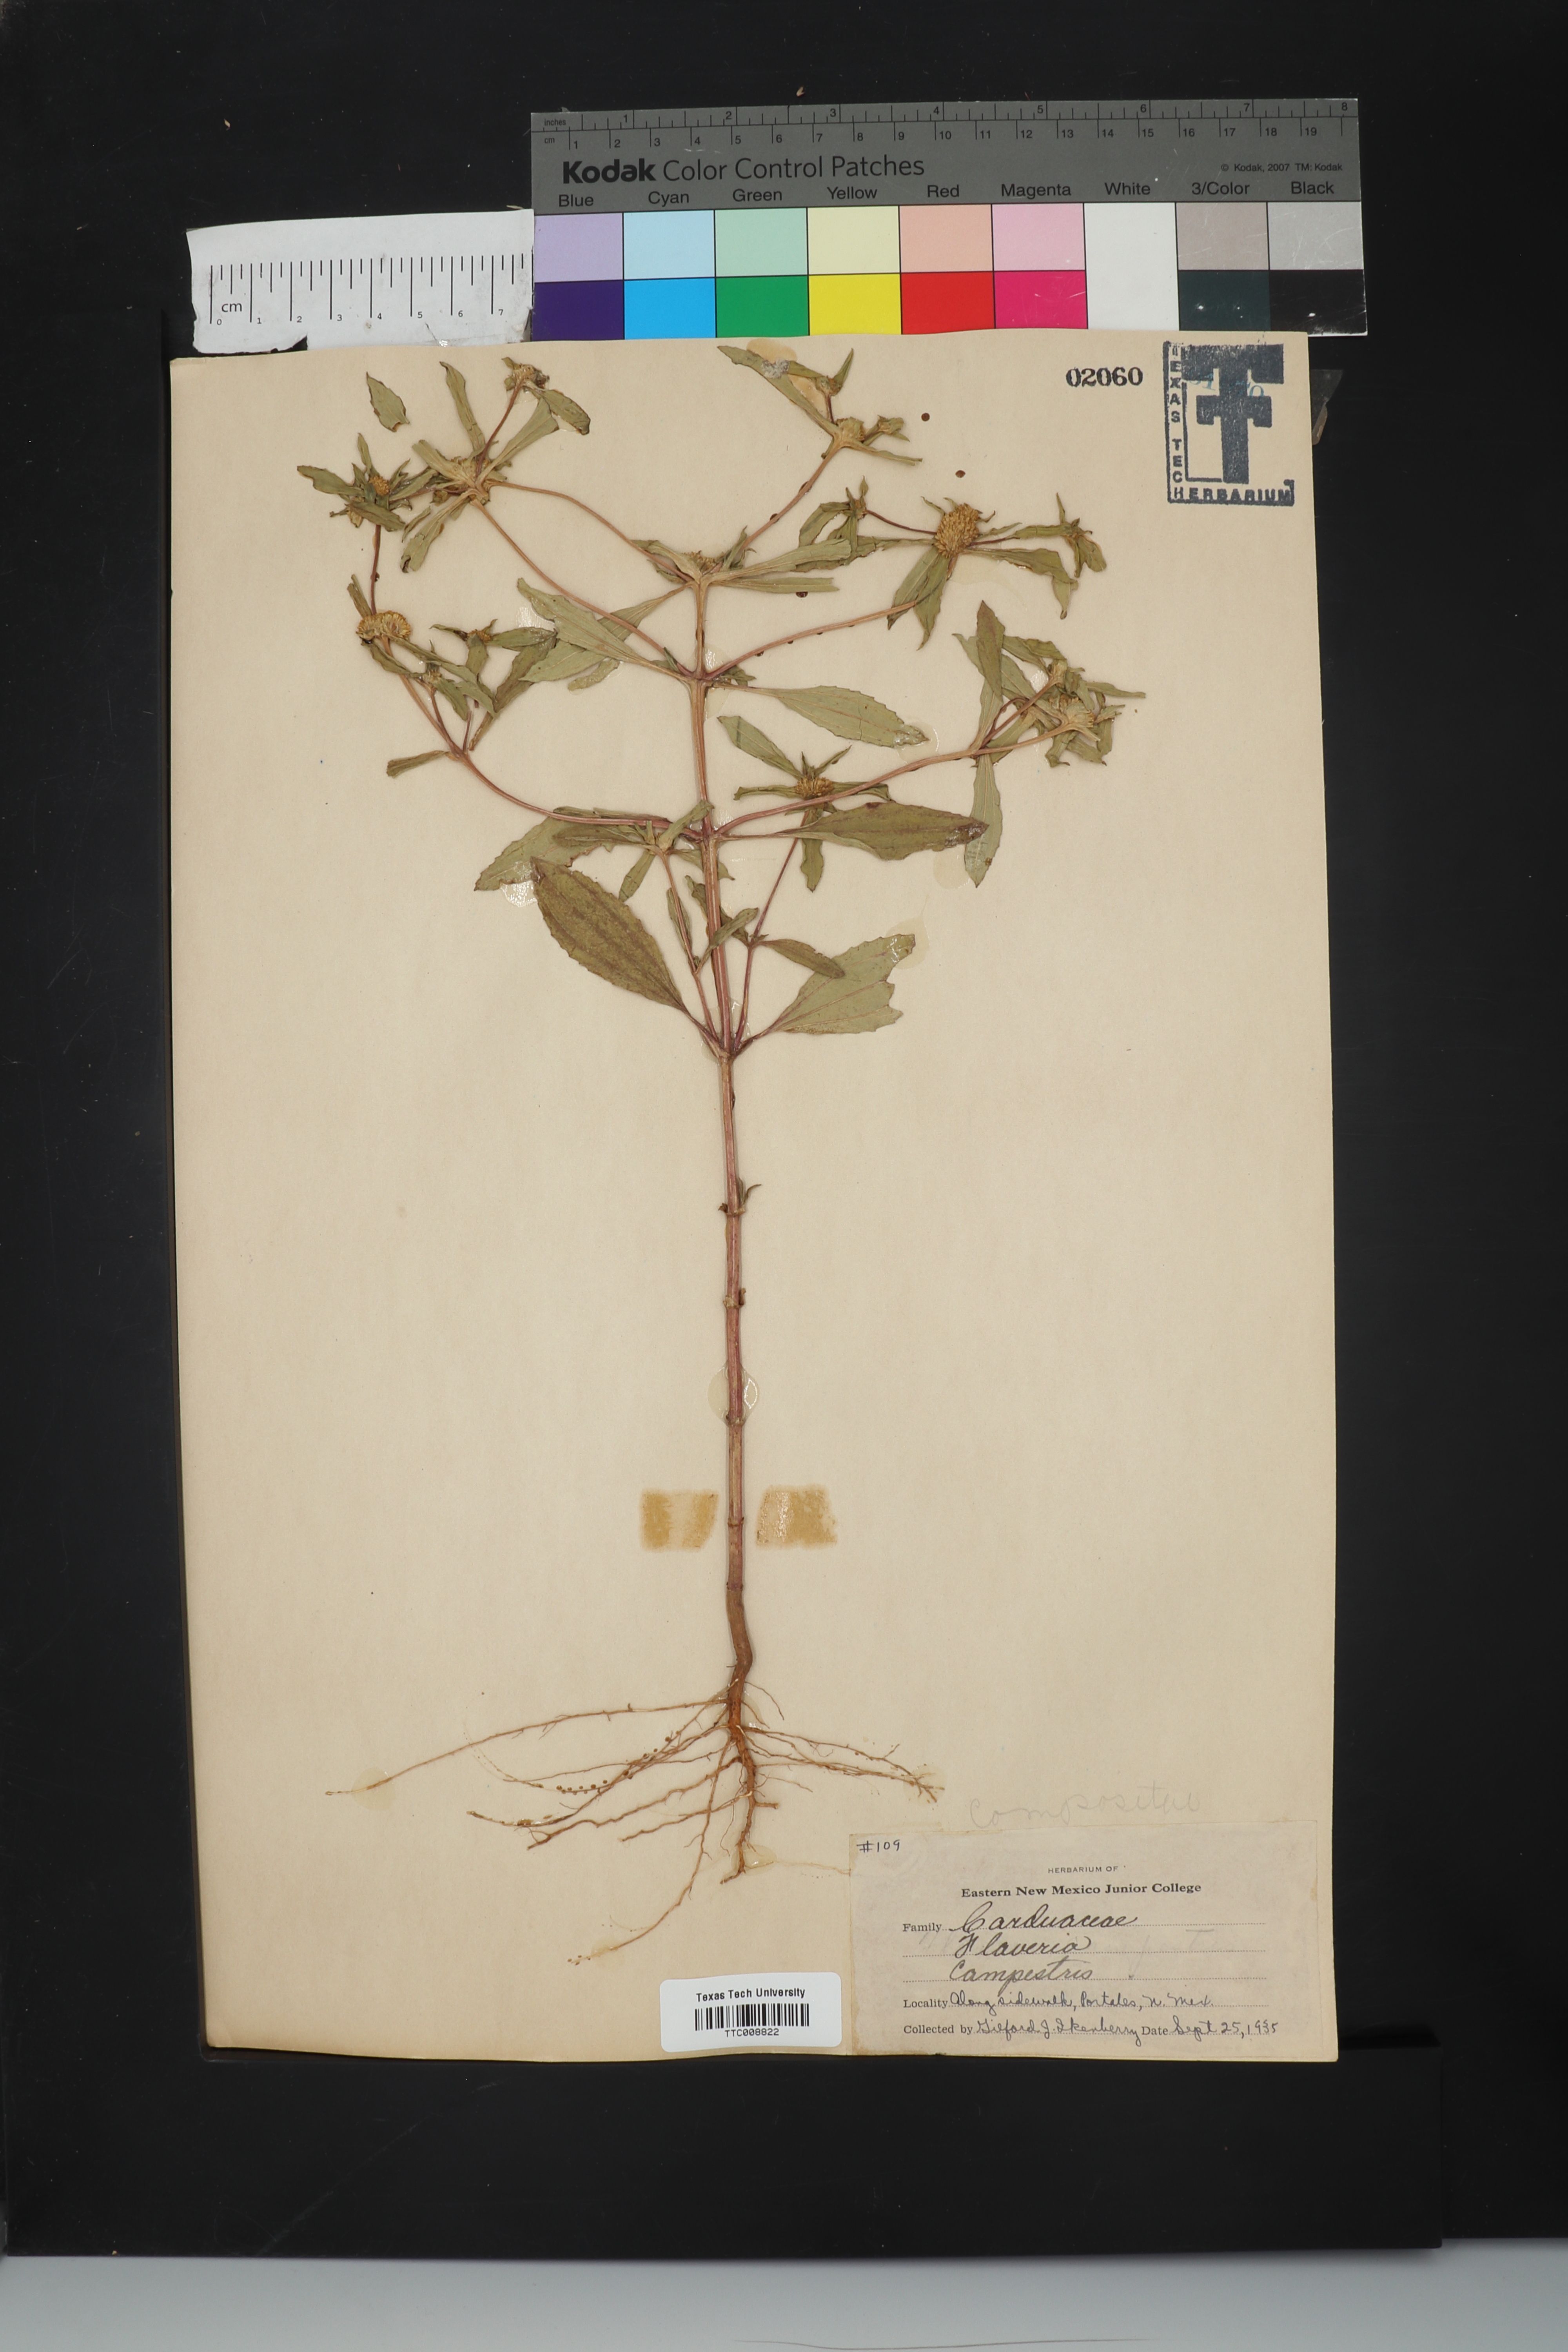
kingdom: Plantae
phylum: Tracheophyta
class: Magnoliopsida
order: Asterales
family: Asteraceae
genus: Flaveria
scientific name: Flaveria campestris
